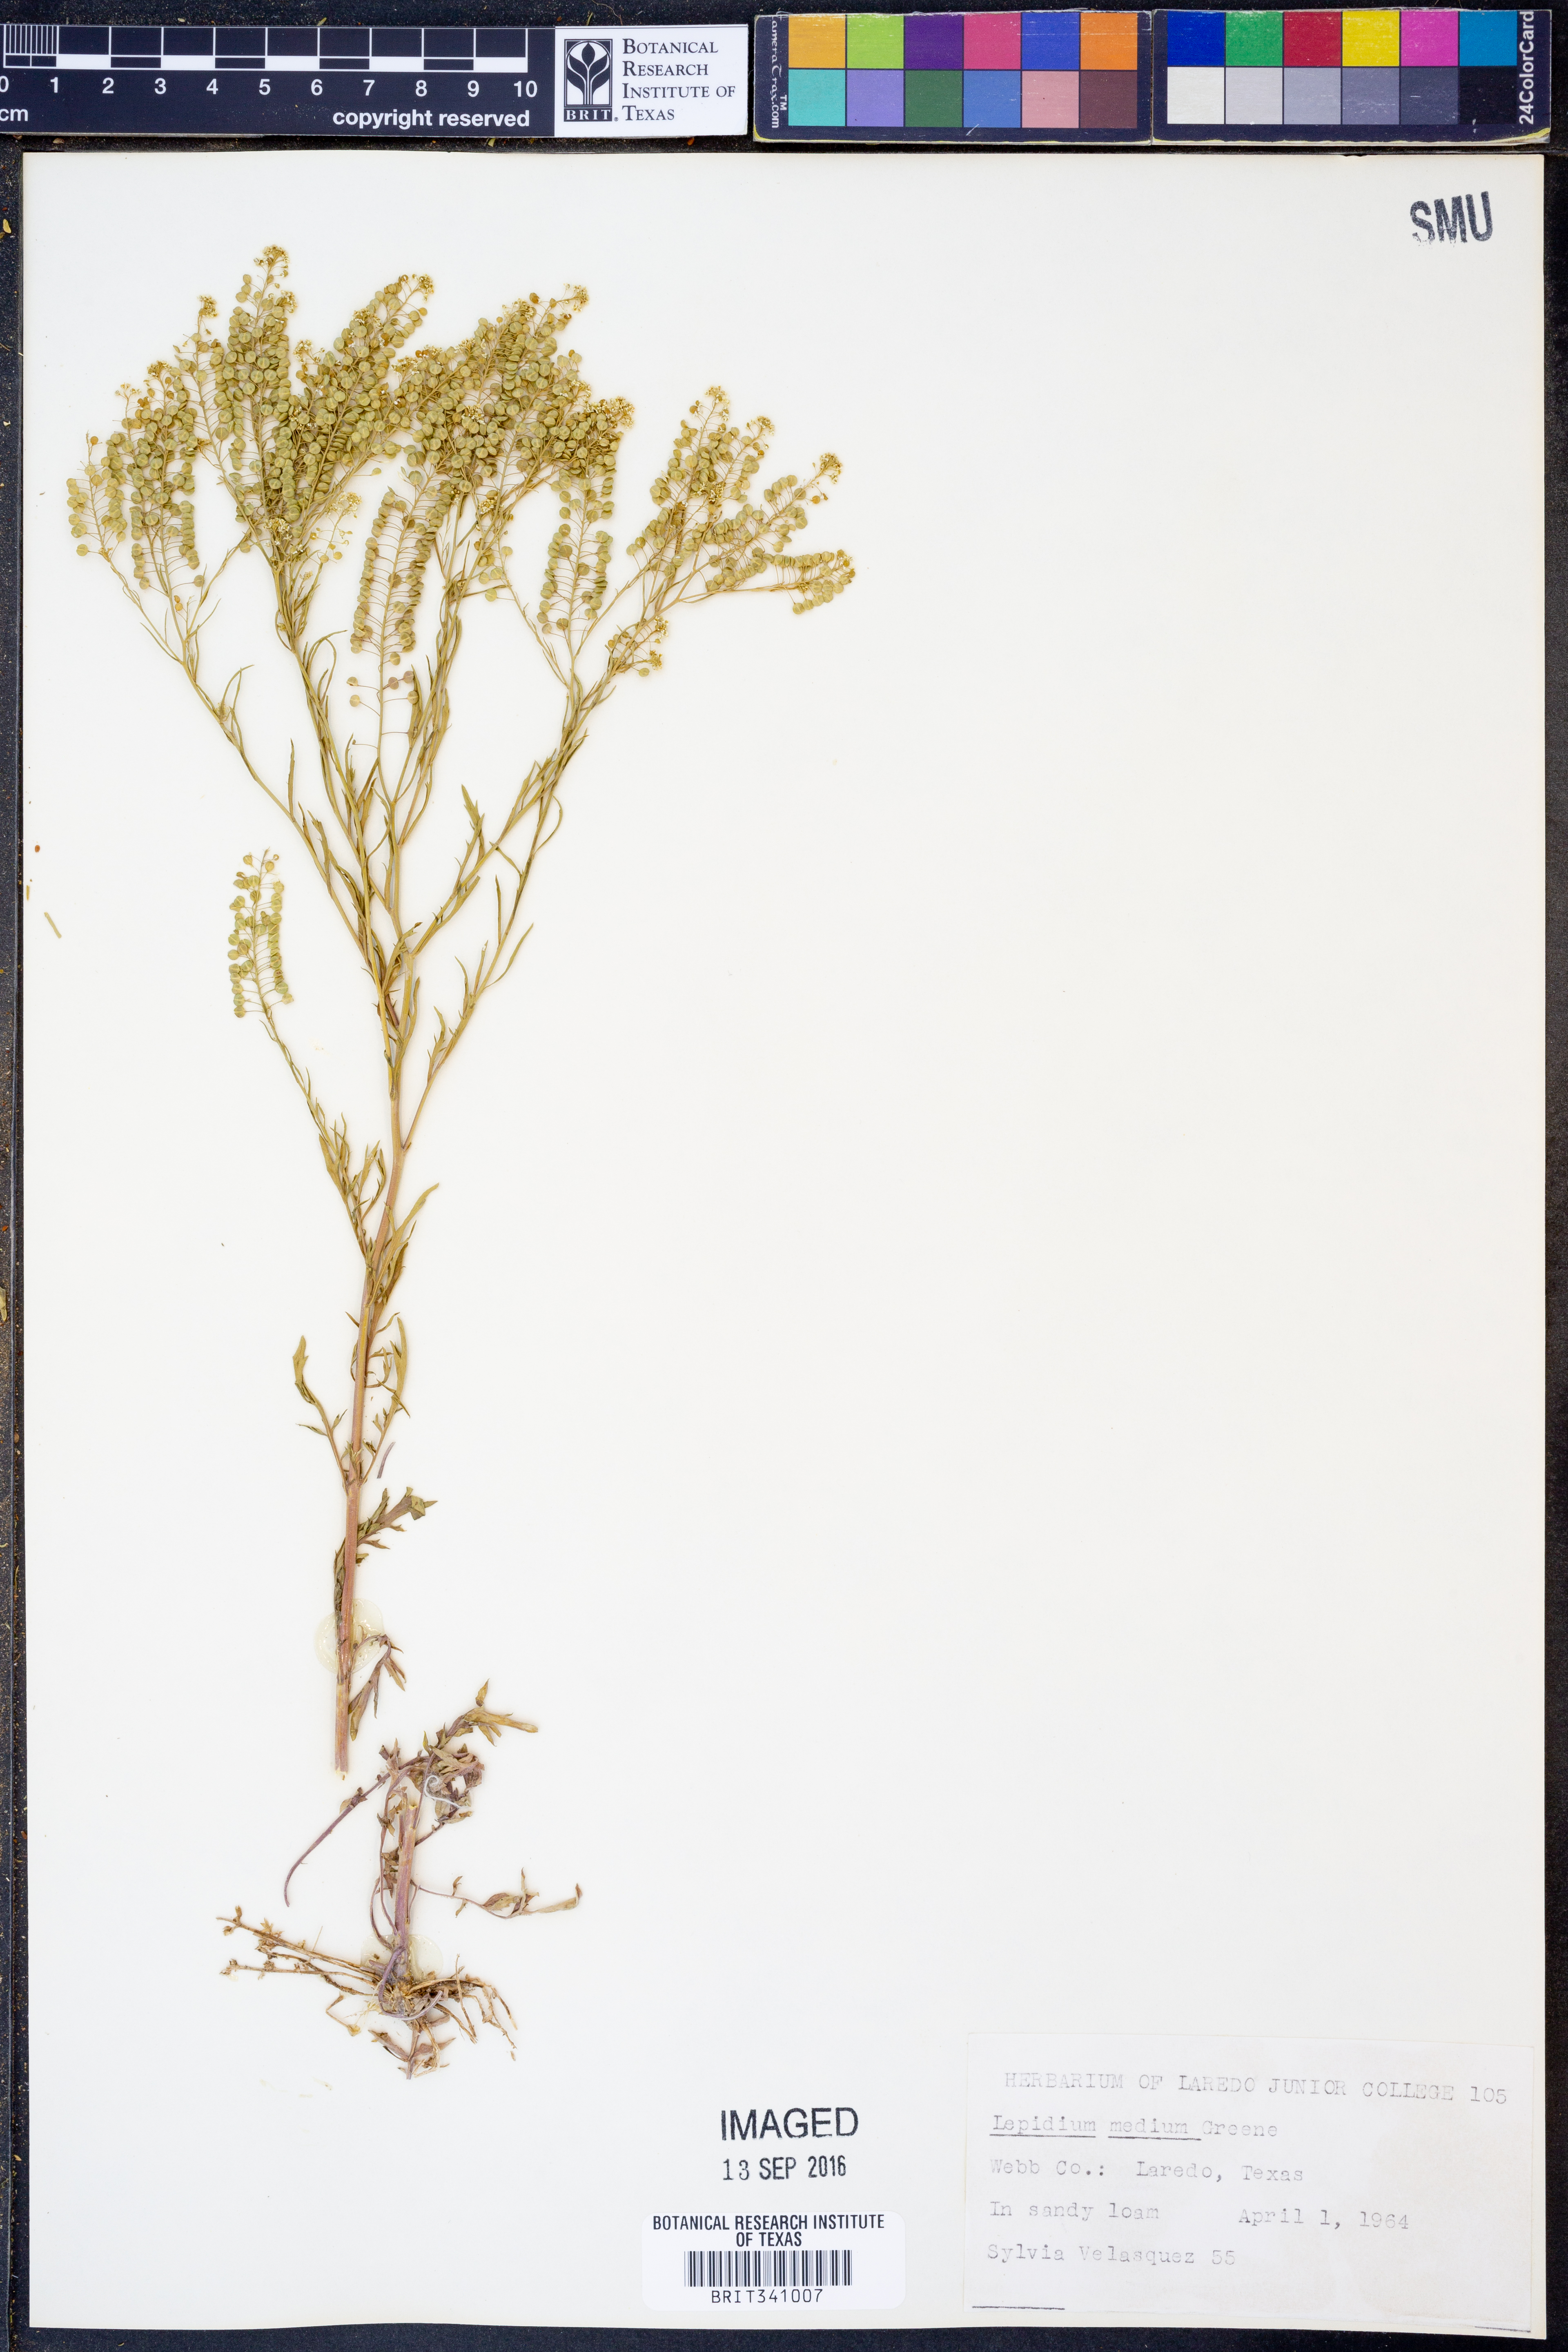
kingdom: Plantae
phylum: Tracheophyta
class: Magnoliopsida
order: Brassicales
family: Brassicaceae
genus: Lepidium
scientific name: Lepidium virginicum
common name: Least pepperwort
